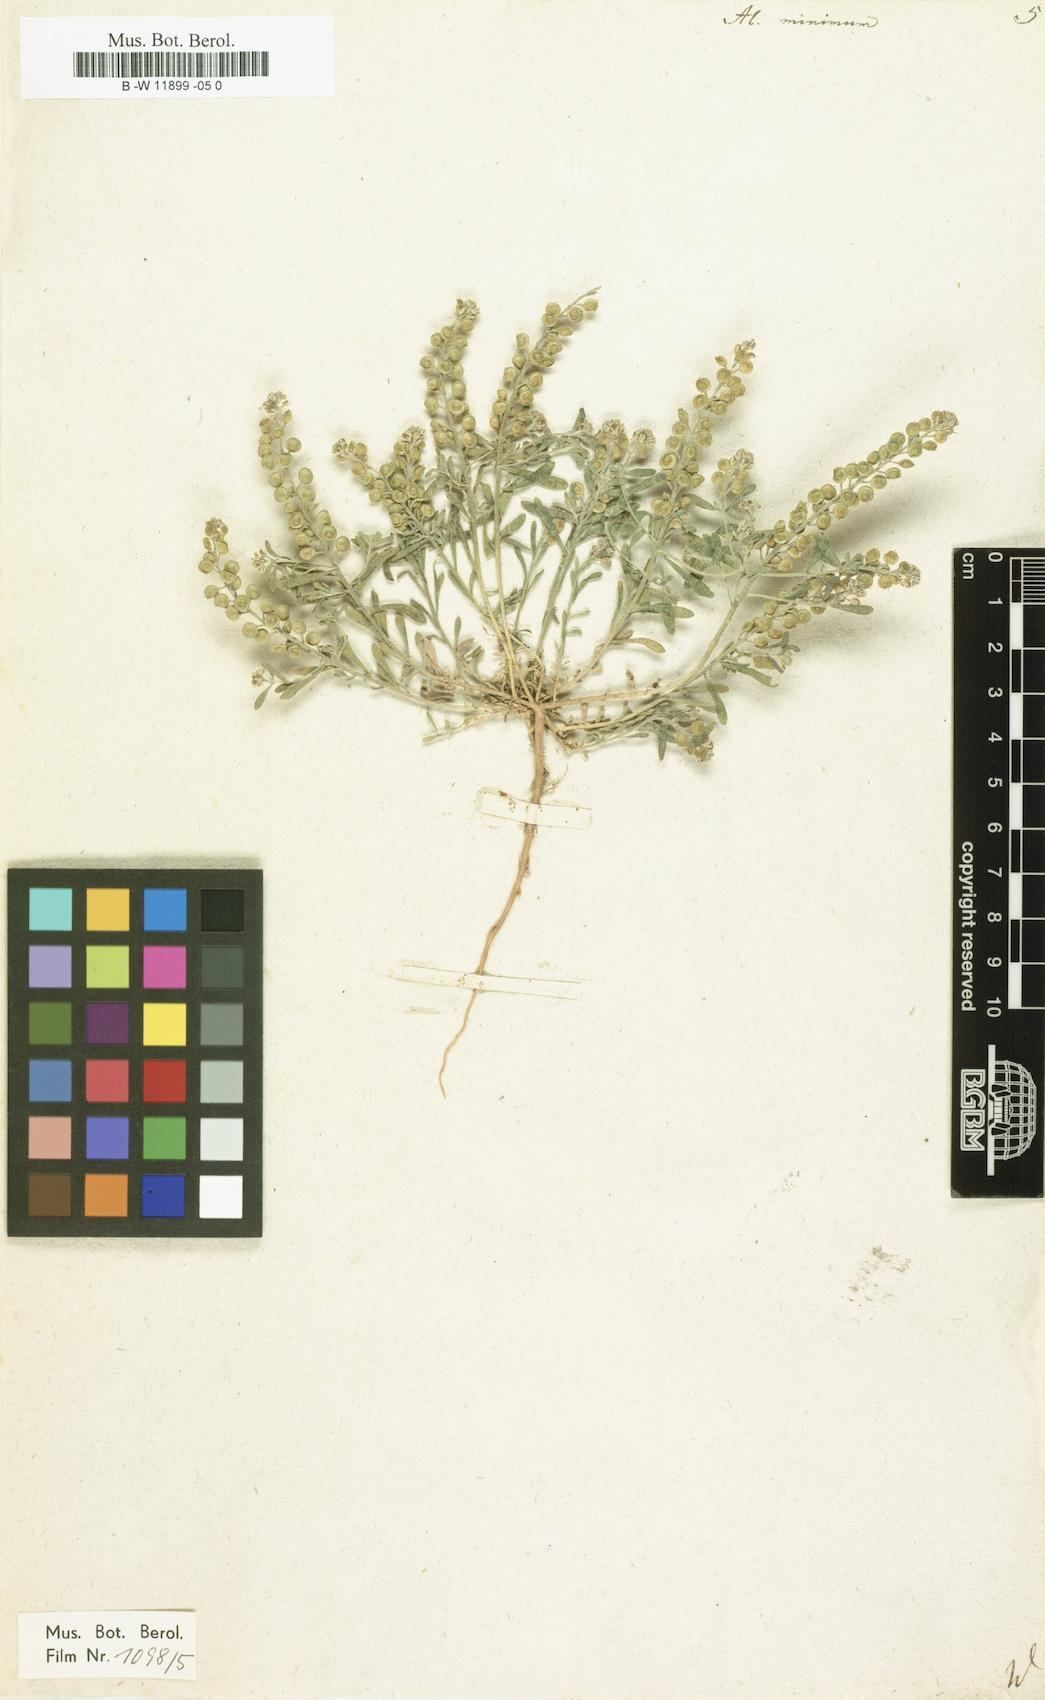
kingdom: Plantae
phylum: Tracheophyta
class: Magnoliopsida
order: Brassicales
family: Brassicaceae
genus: Alyssum
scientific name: Alyssum turkestanicum
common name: Desert alyssum
